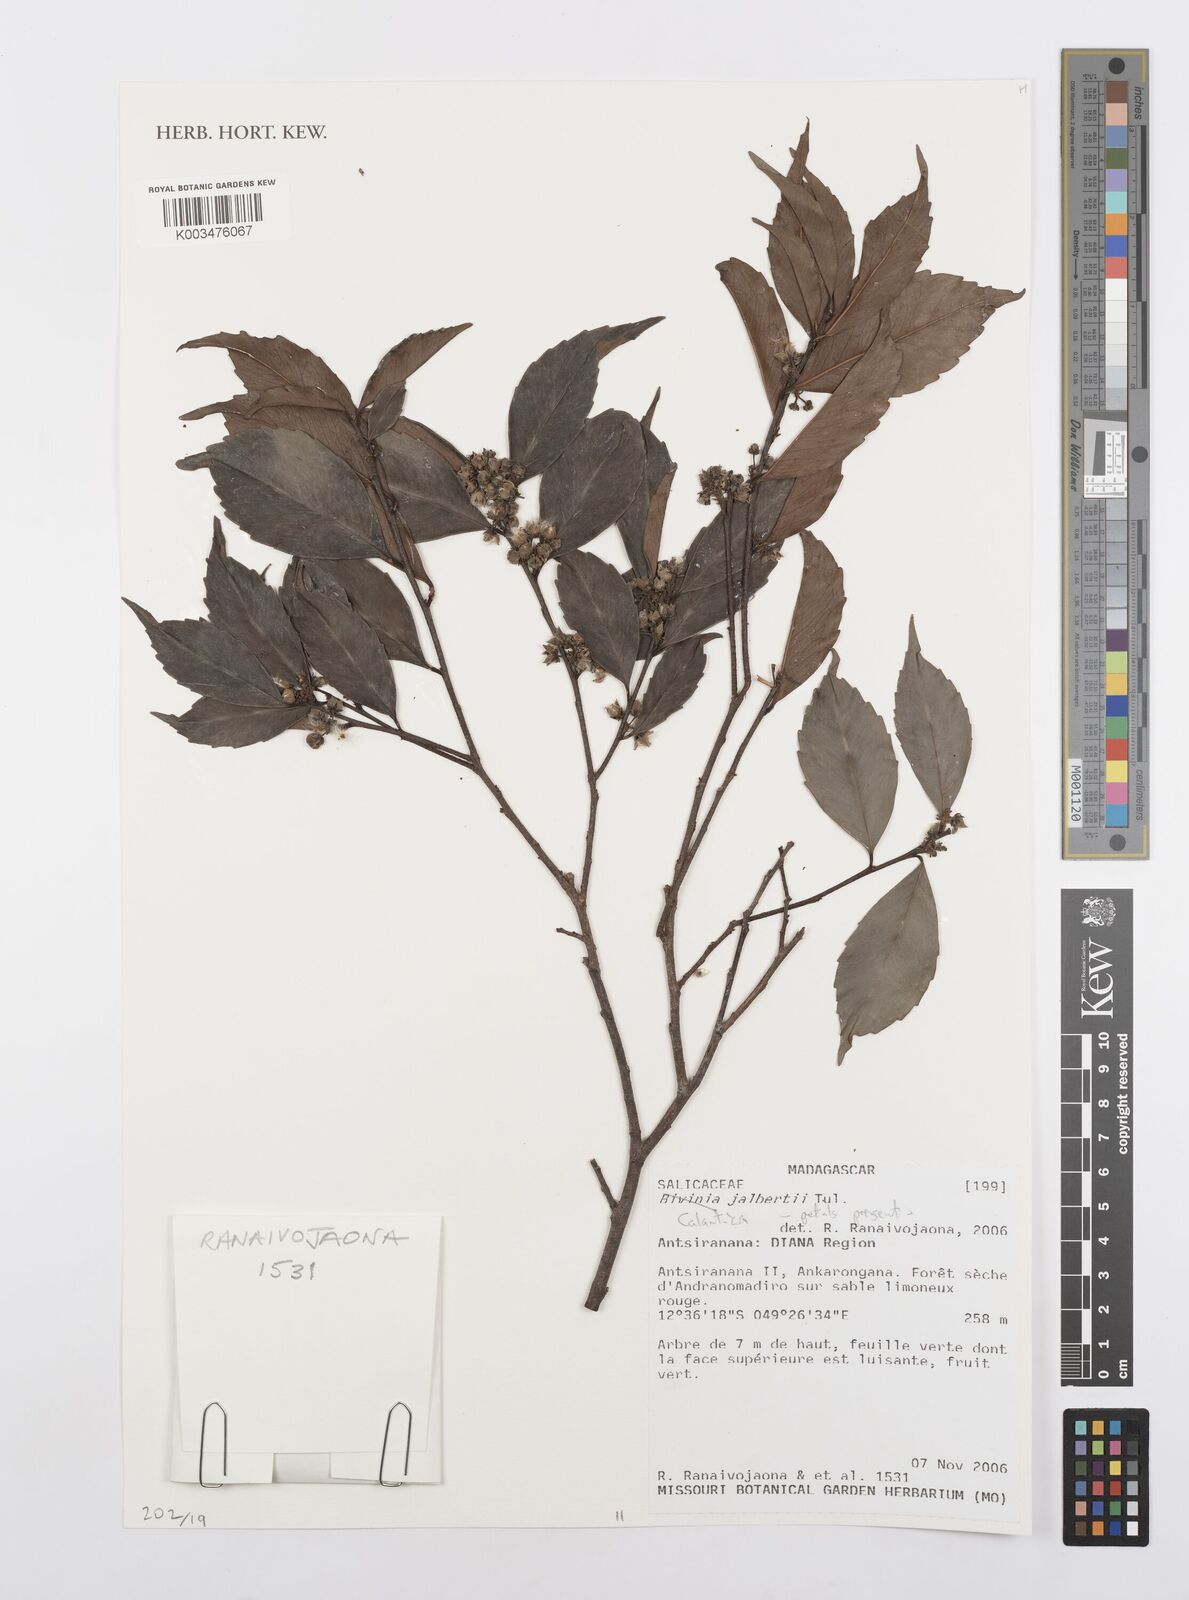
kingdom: Plantae
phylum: Tracheophyta
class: Magnoliopsida
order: Malpighiales
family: Salicaceae
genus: Calantica
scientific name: Calantica
